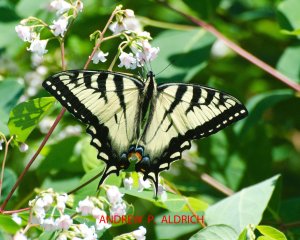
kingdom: Animalia
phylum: Arthropoda
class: Insecta
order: Lepidoptera
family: Papilionidae
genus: Pterourus
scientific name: Pterourus canadensis
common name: Canadian Tiger Swallowtail
